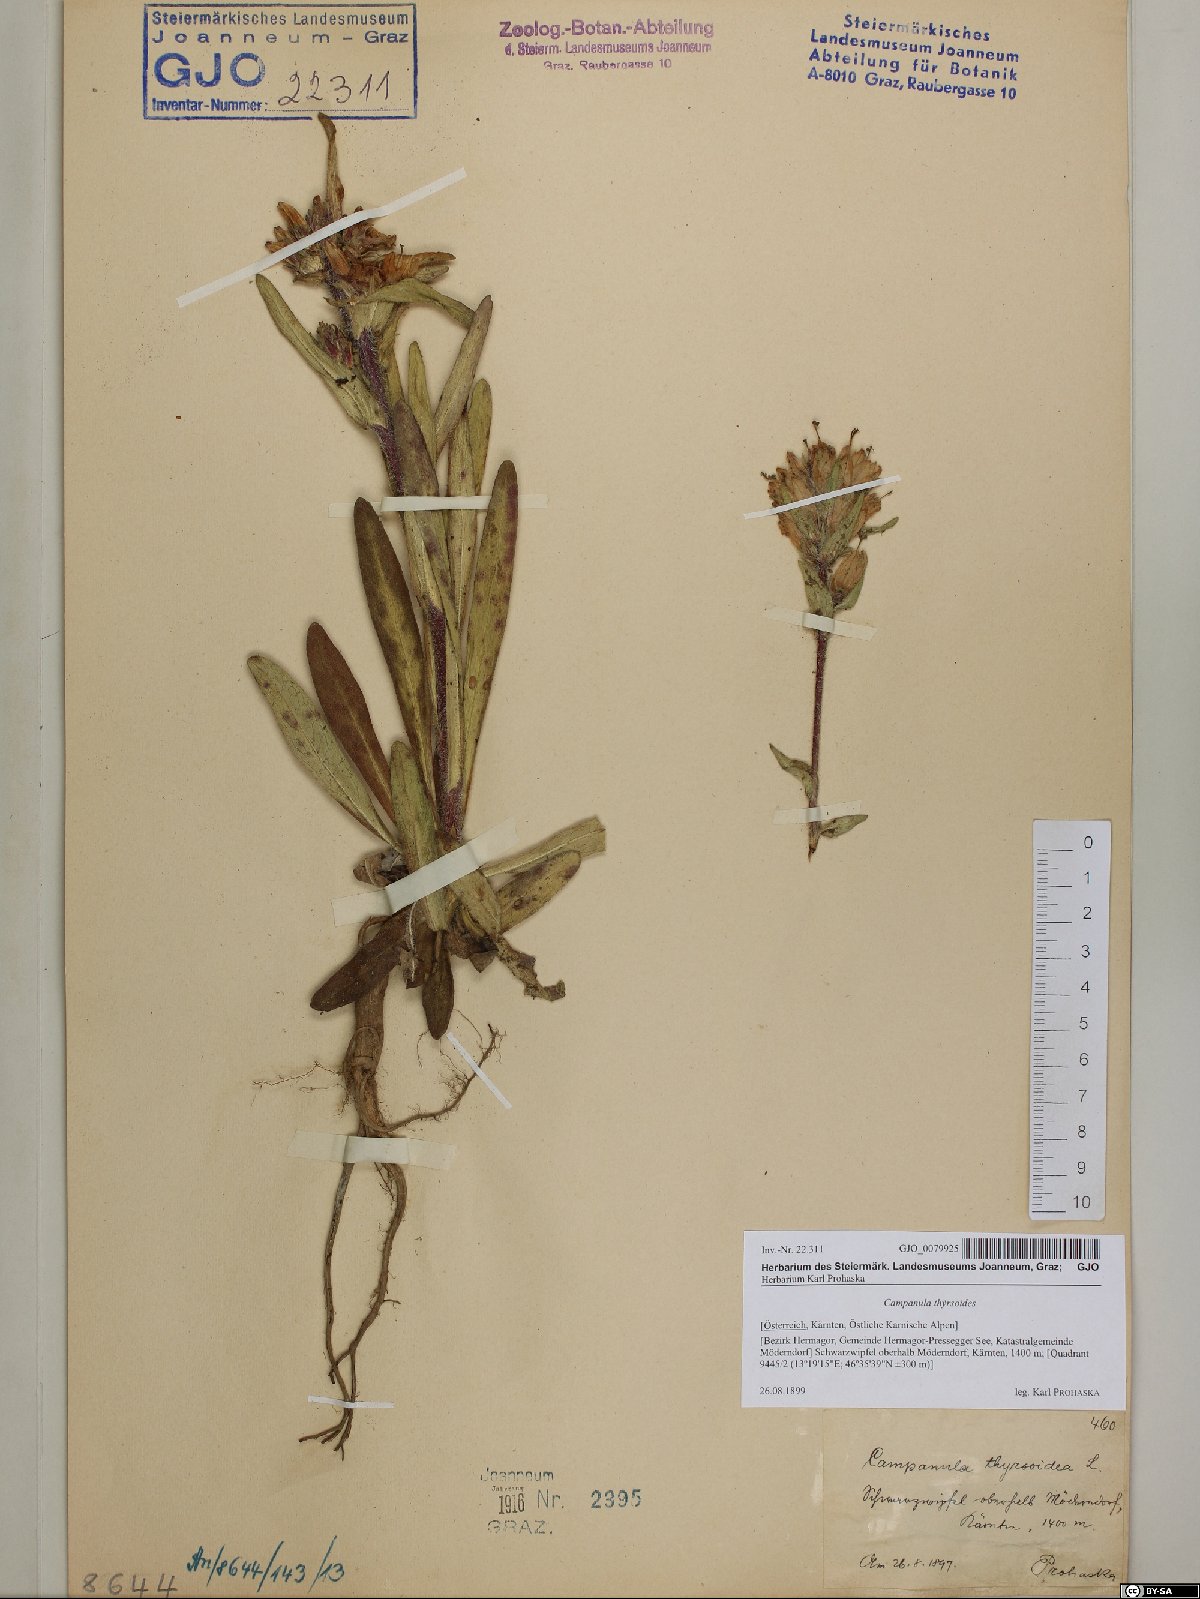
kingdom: Plantae
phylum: Tracheophyta
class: Magnoliopsida
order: Asterales
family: Campanulaceae
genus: Campanula
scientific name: Campanula thyrsoides
